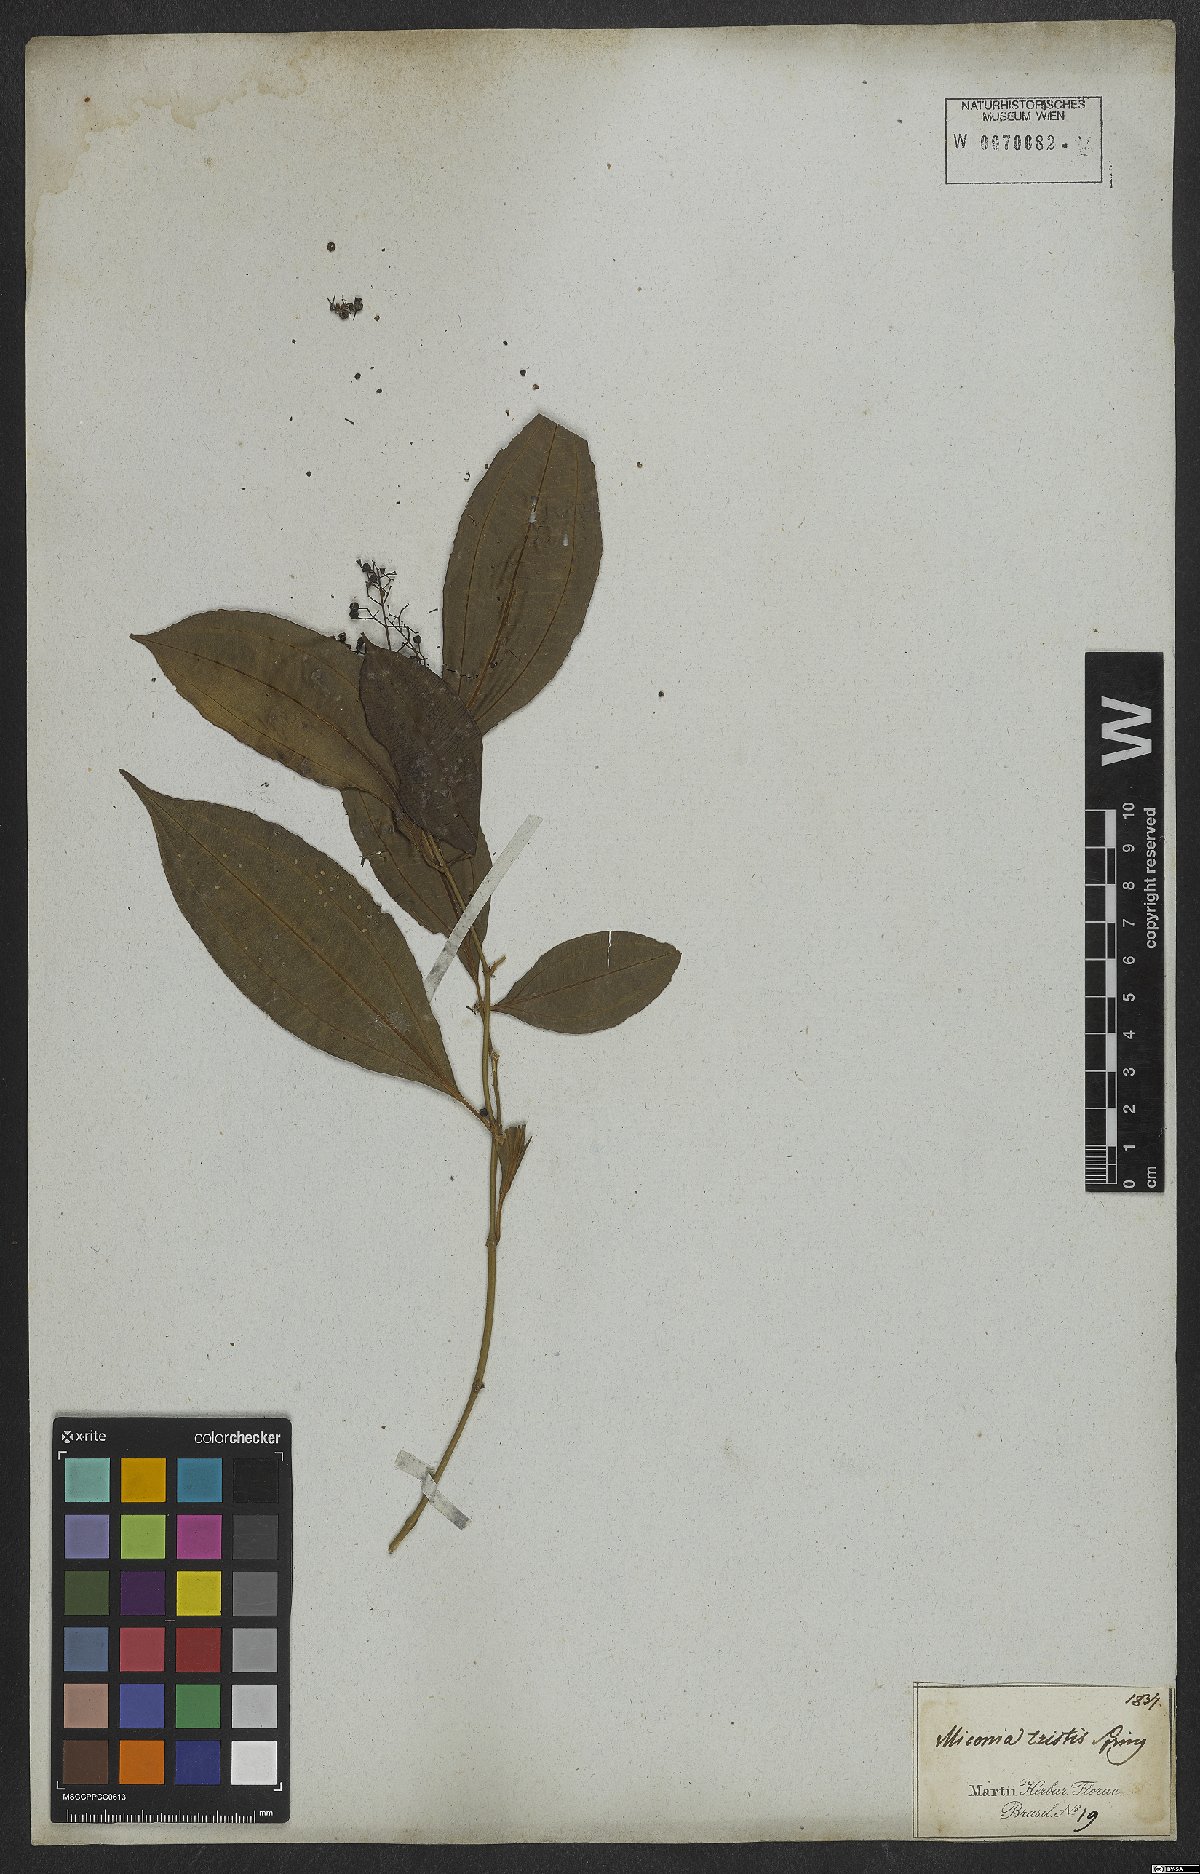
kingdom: Plantae
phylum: Tracheophyta
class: Magnoliopsida
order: Myrtales
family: Melastomataceae
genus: Miconia
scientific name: Miconia tristis
